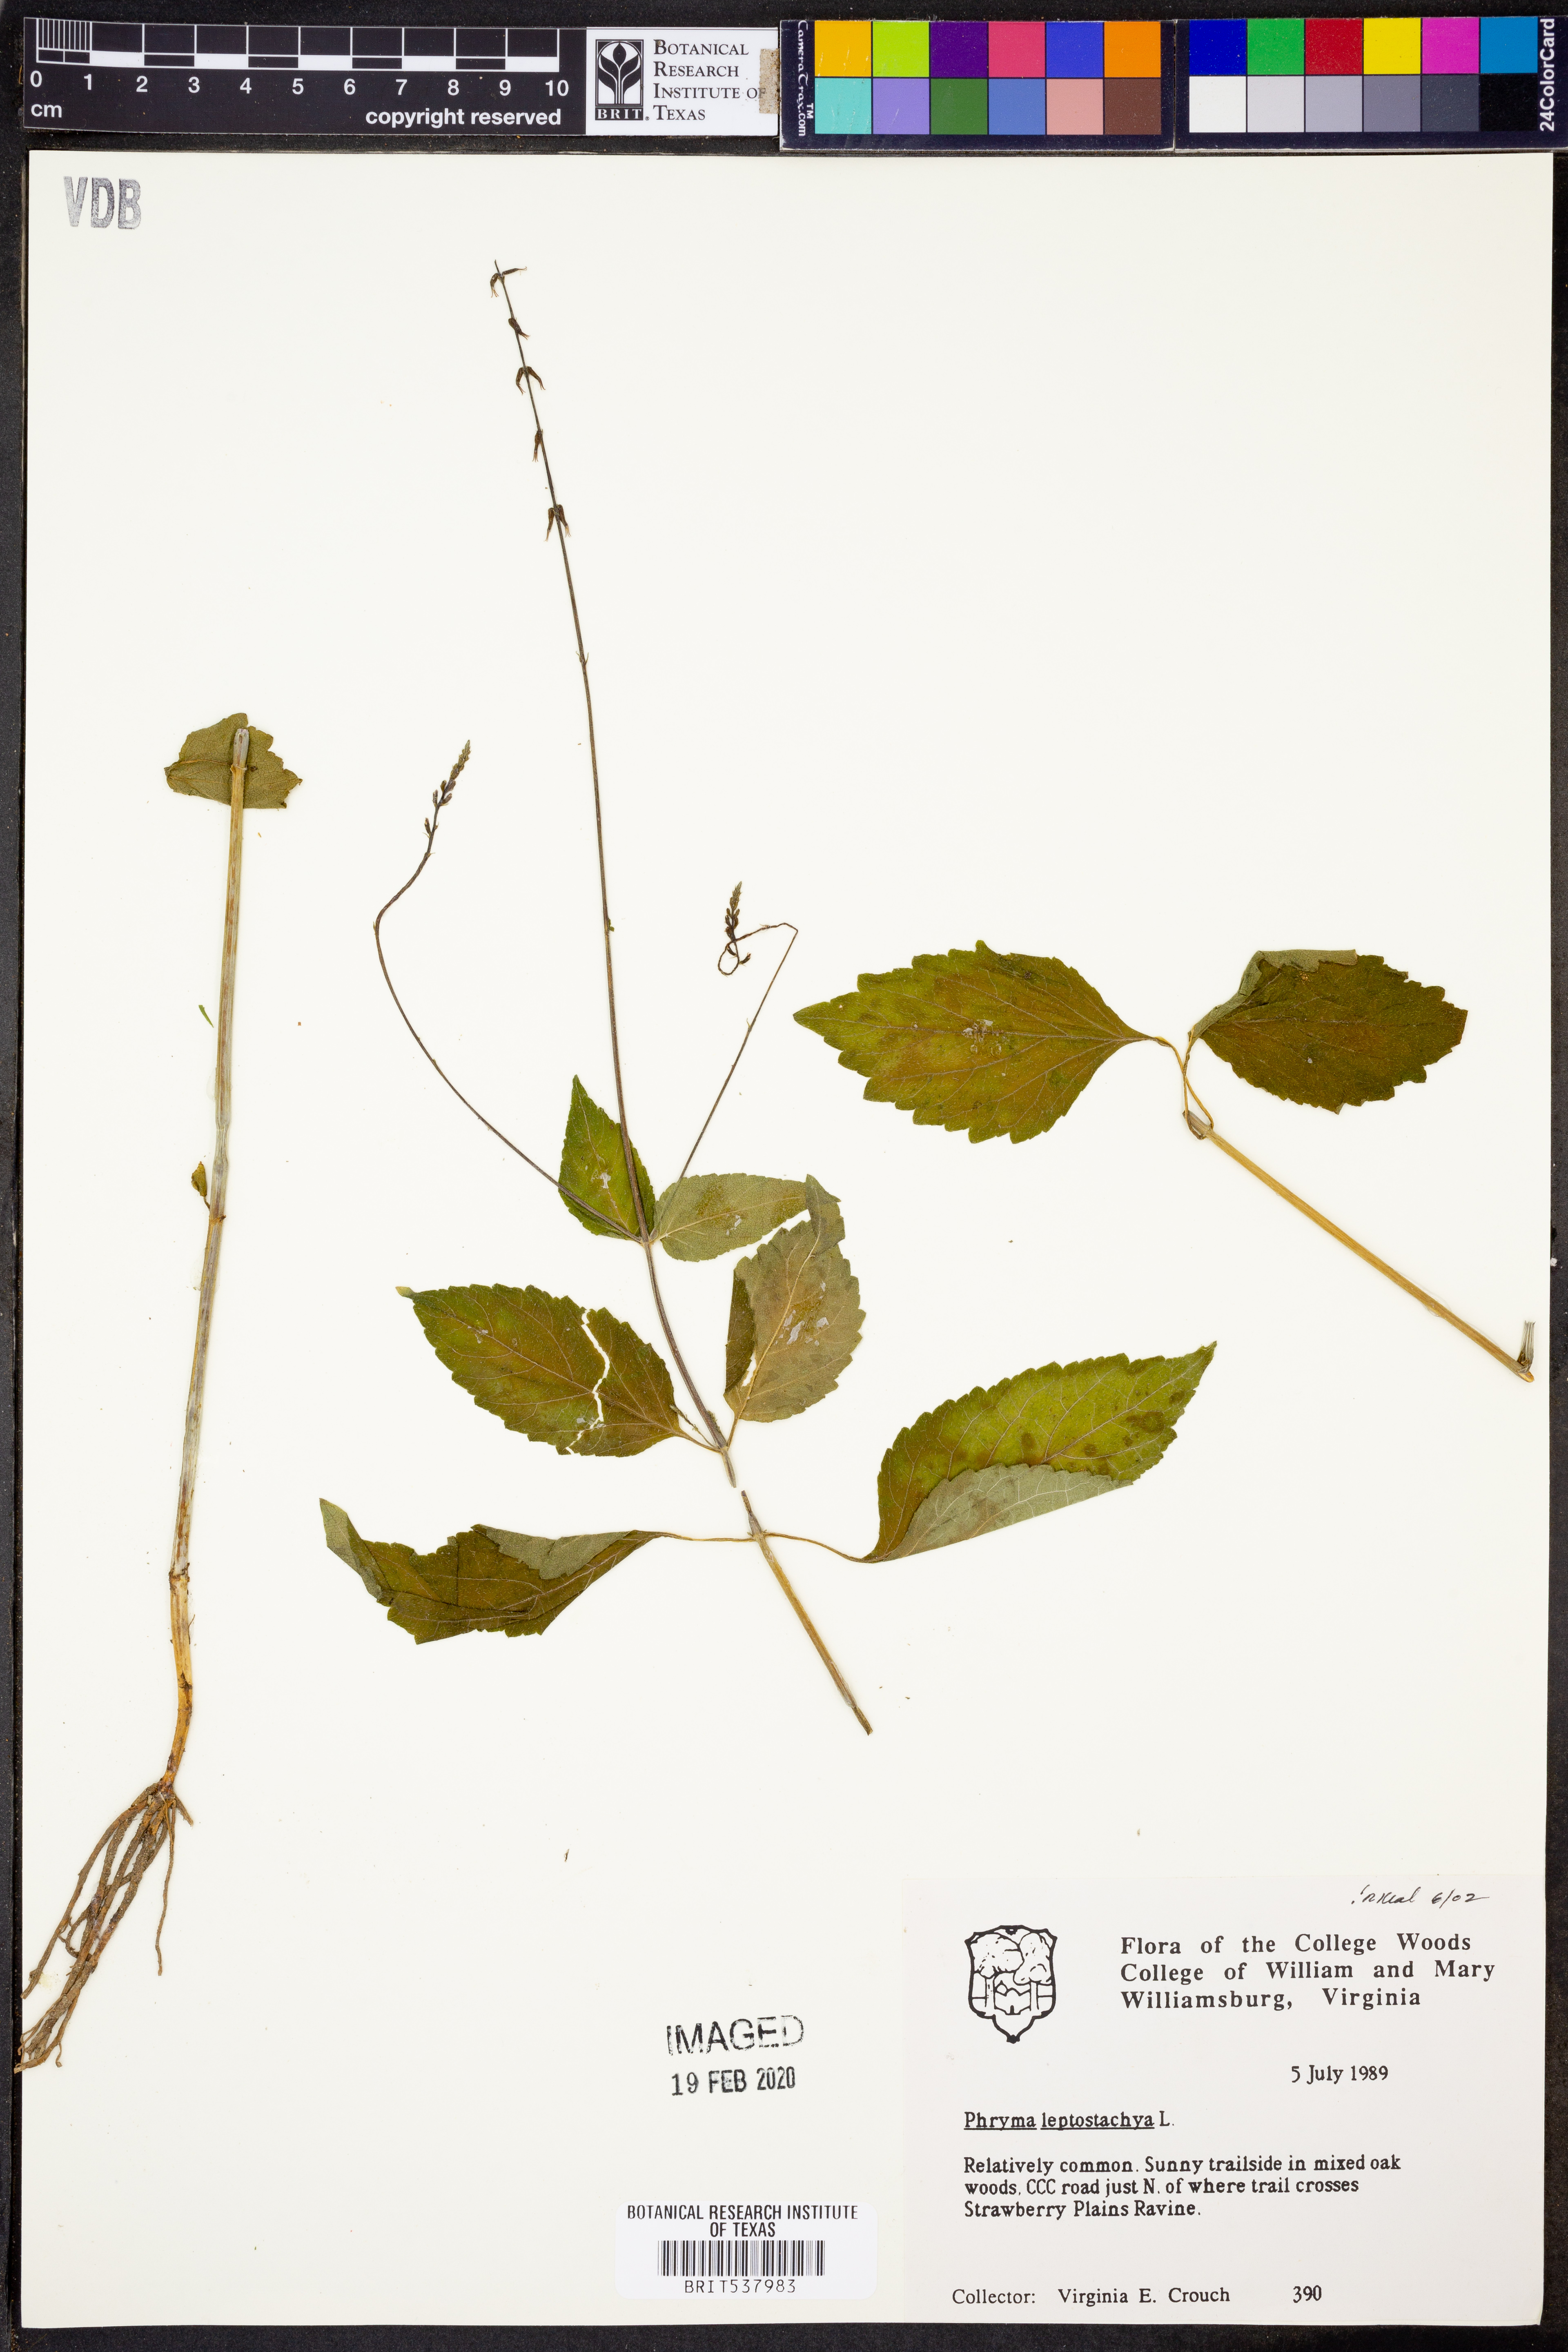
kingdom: Plantae
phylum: Tracheophyta
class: Magnoliopsida
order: Lamiales
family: Phrymaceae
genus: Phryma
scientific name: Phryma leptostachya
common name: American lopseed
